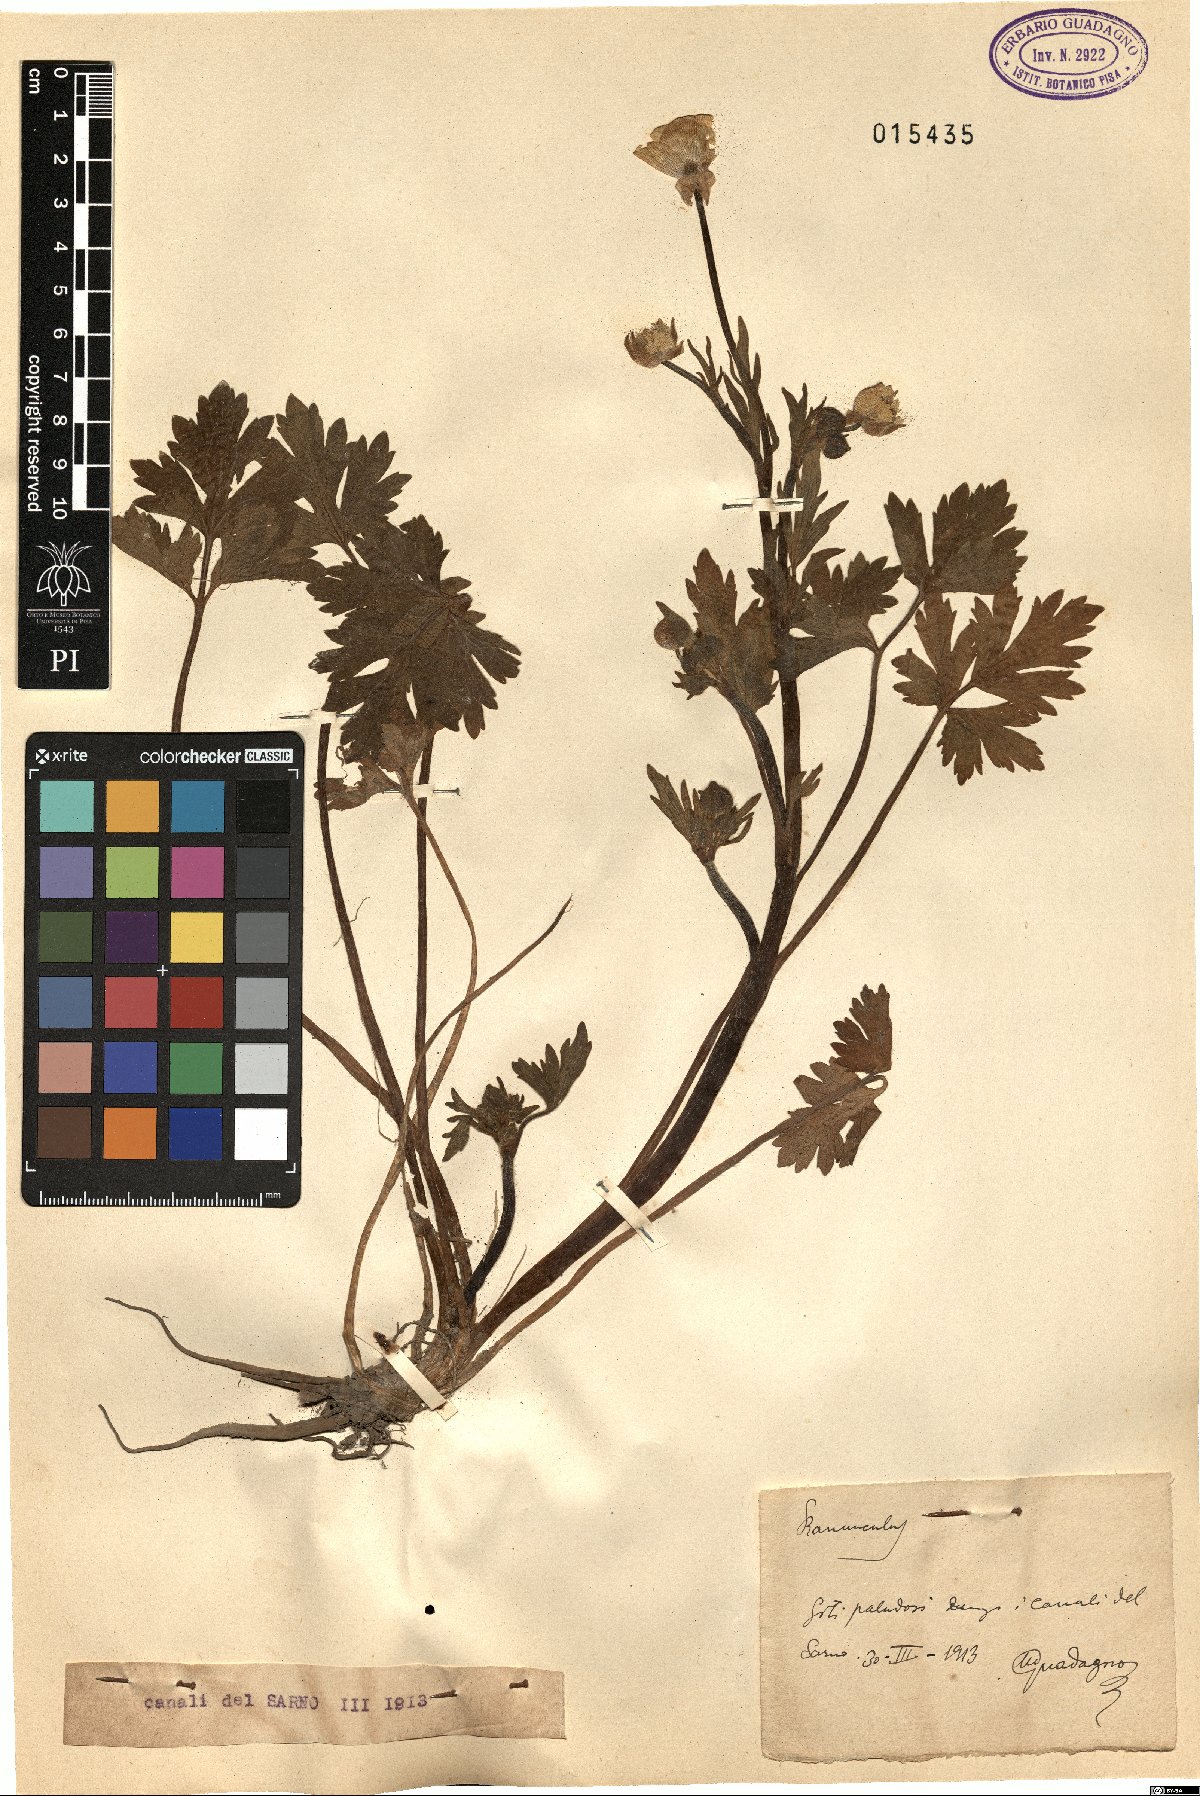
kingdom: Plantae
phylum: Tracheophyta
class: Magnoliopsida
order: Ranunculales
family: Ranunculaceae
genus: Ranunculus
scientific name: Ranunculus
